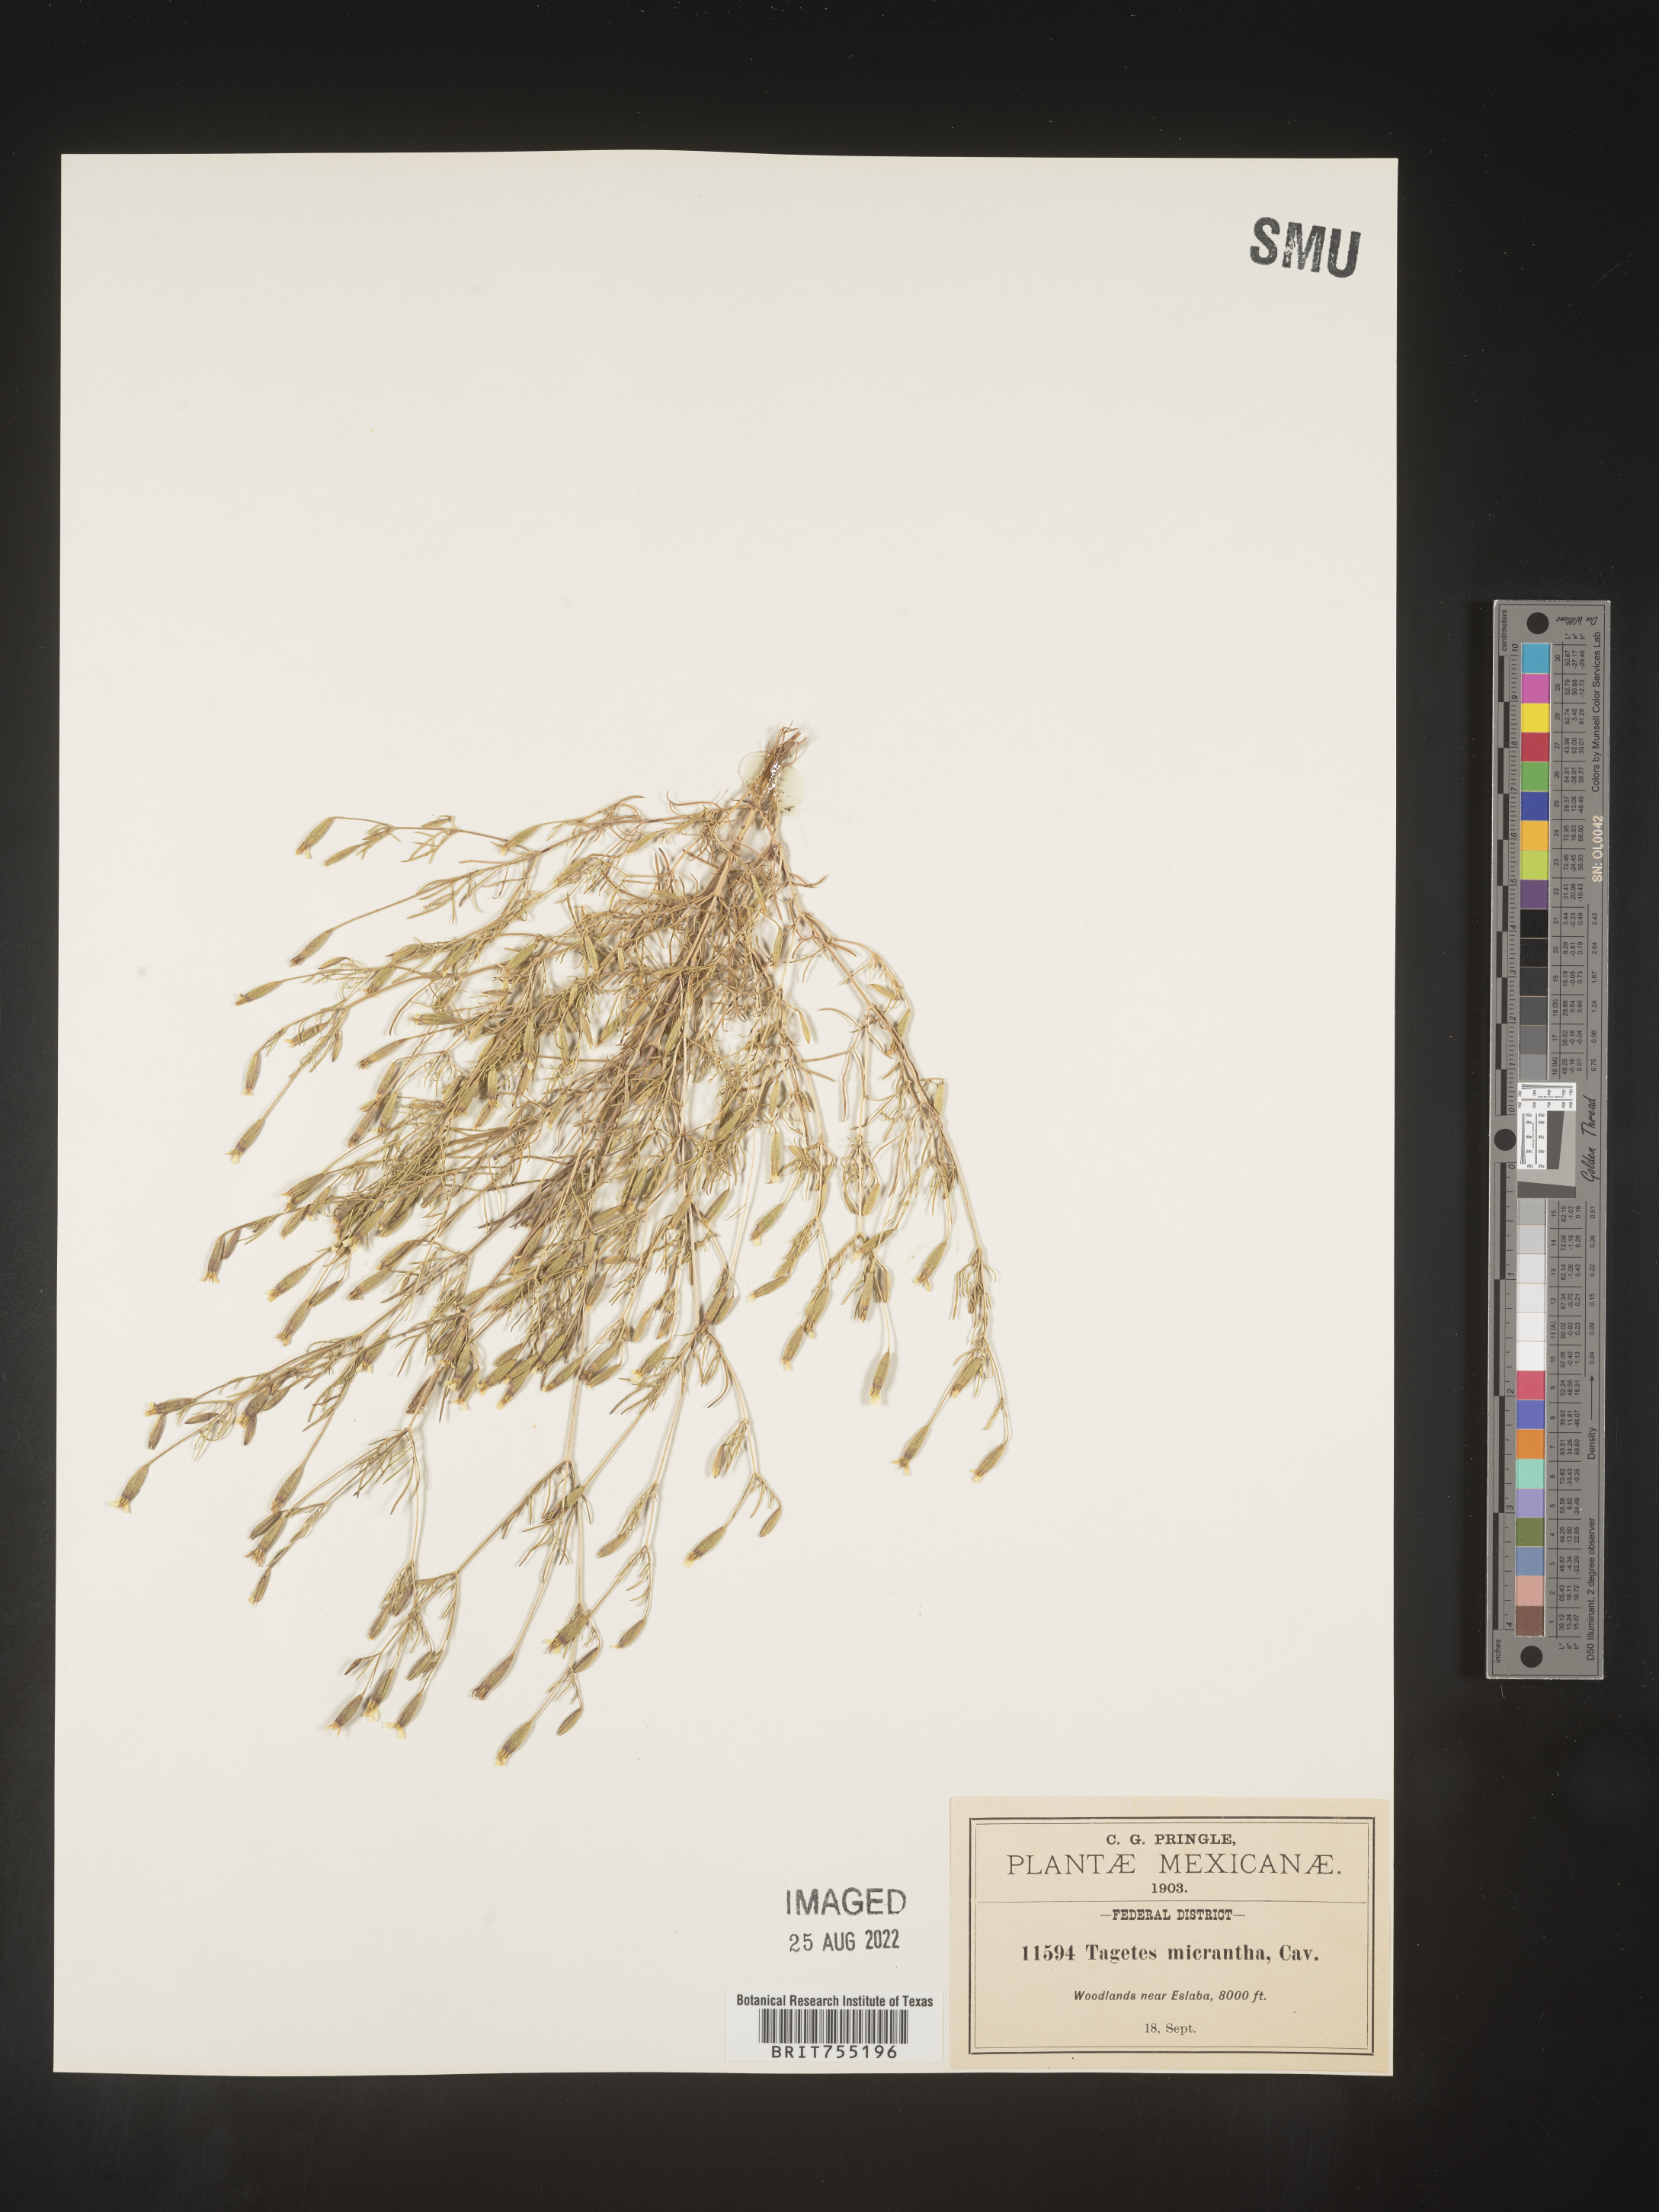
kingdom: Plantae
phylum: Tracheophyta
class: Magnoliopsida
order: Asterales
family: Asteraceae
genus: Tagetes
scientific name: Tagetes
